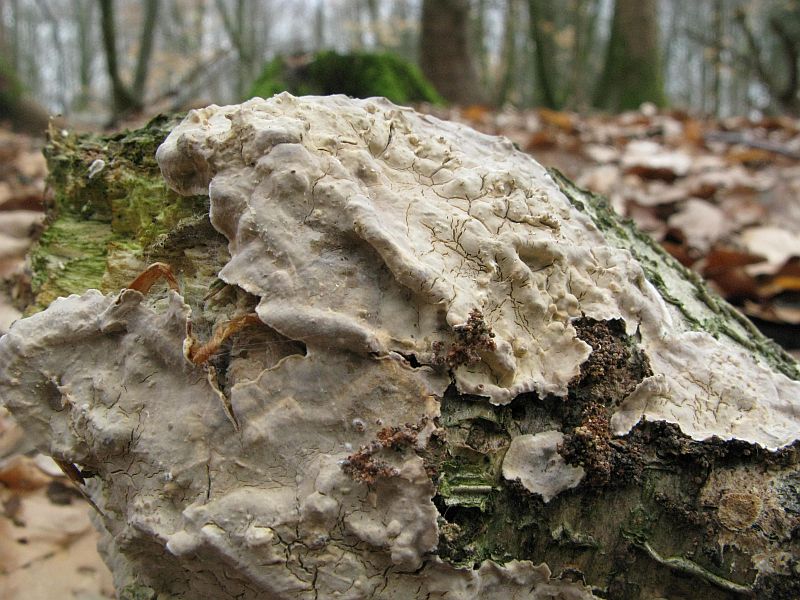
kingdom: Fungi
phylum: Basidiomycota
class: Agaricomycetes
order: Russulales
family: Stereaceae
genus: Stereum
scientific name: Stereum rugosum
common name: rynket lædersvamp
